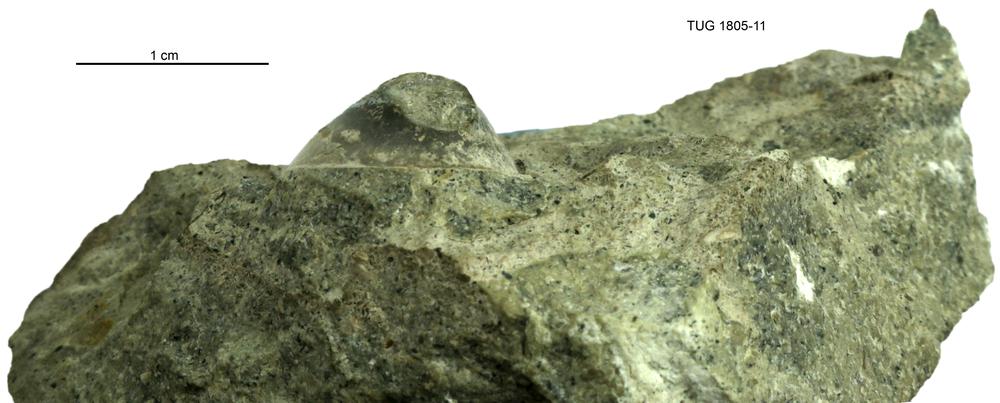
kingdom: Animalia
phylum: Mollusca
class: Gastropoda
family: Archinacellidae
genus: Archinacella
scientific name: Archinacella Metoptoma melissa
